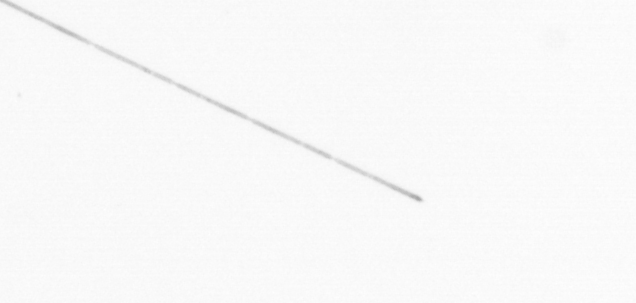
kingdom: Chromista
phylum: Ochrophyta
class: Bacillariophyceae
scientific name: Bacillariophyceae
